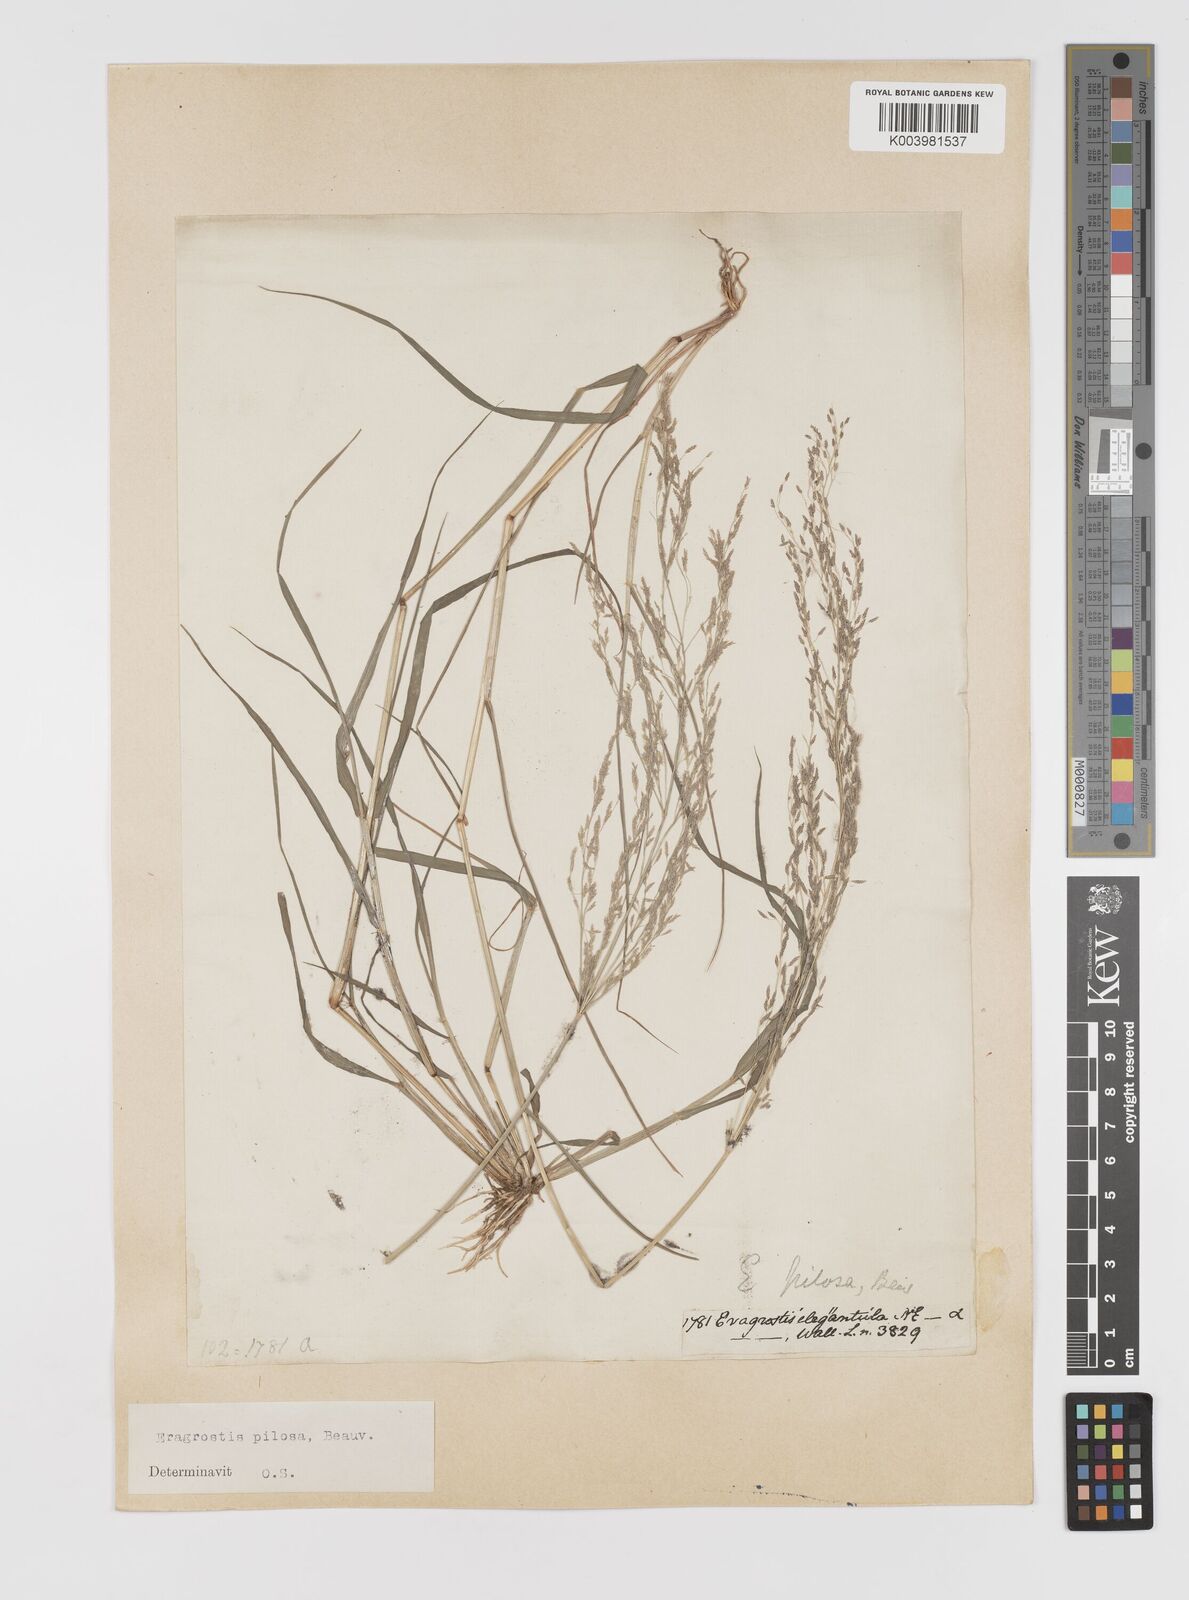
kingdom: Plantae
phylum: Tracheophyta
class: Liliopsida
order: Poales
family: Poaceae
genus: Eragrostis
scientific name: Eragrostis pilosa
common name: Indian lovegrass
